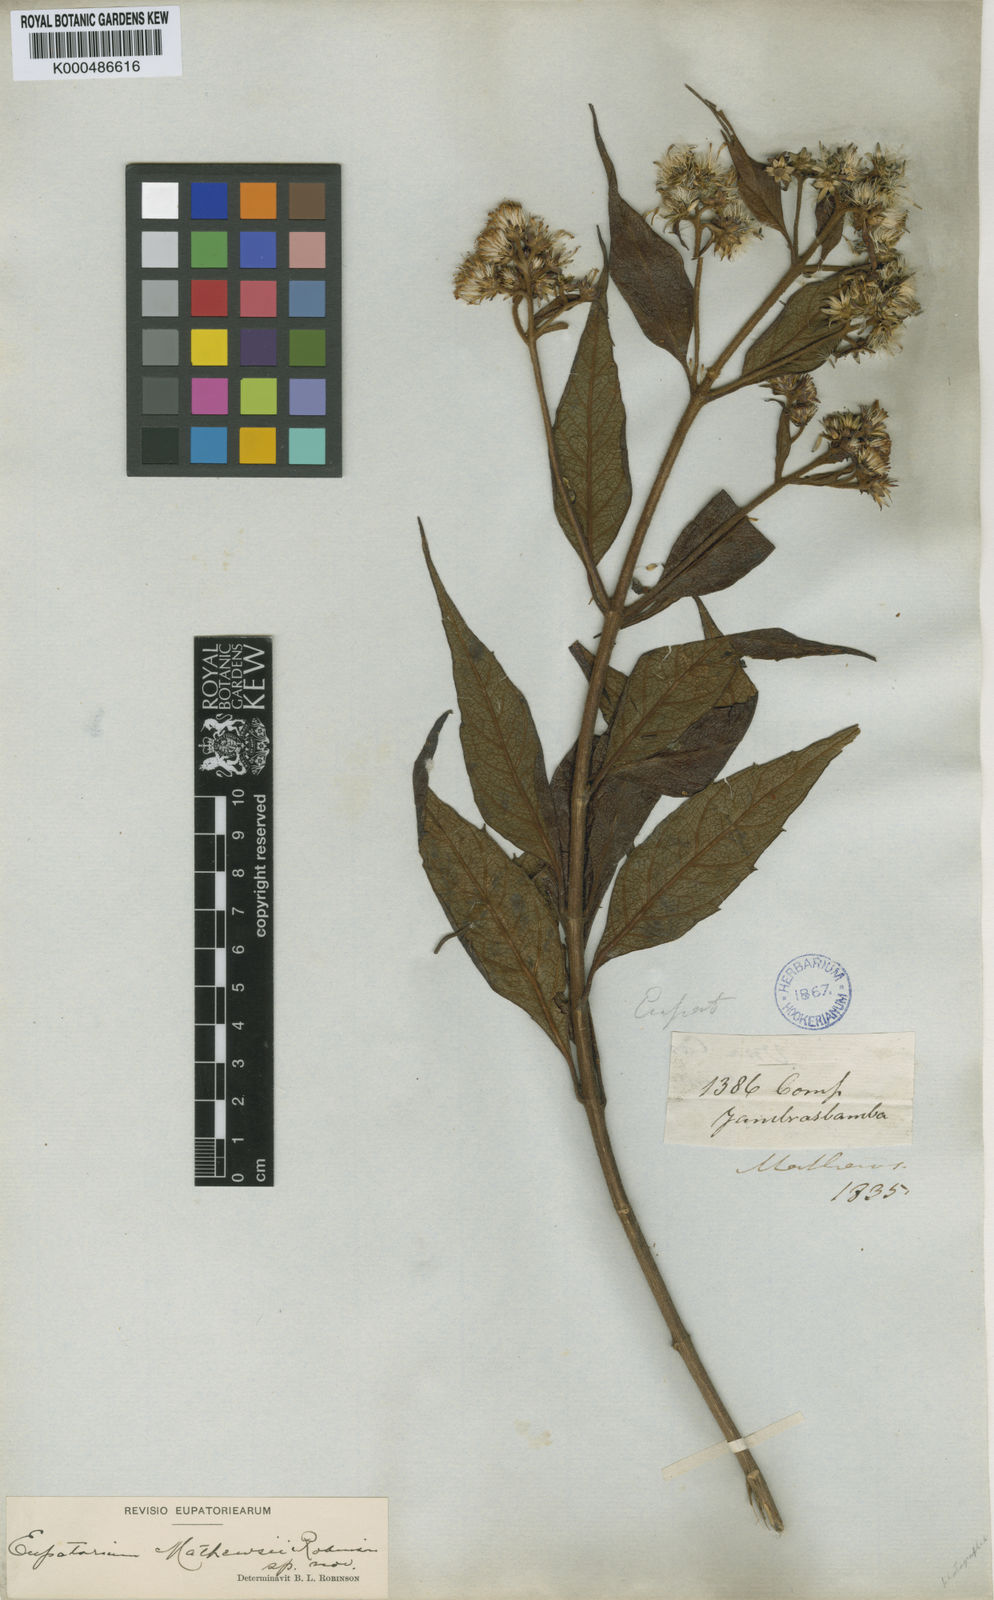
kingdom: Plantae
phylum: Tracheophyta
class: Magnoliopsida
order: Asterales
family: Asteraceae
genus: Ayapanopsis
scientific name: Ayapanopsis mathewsii
